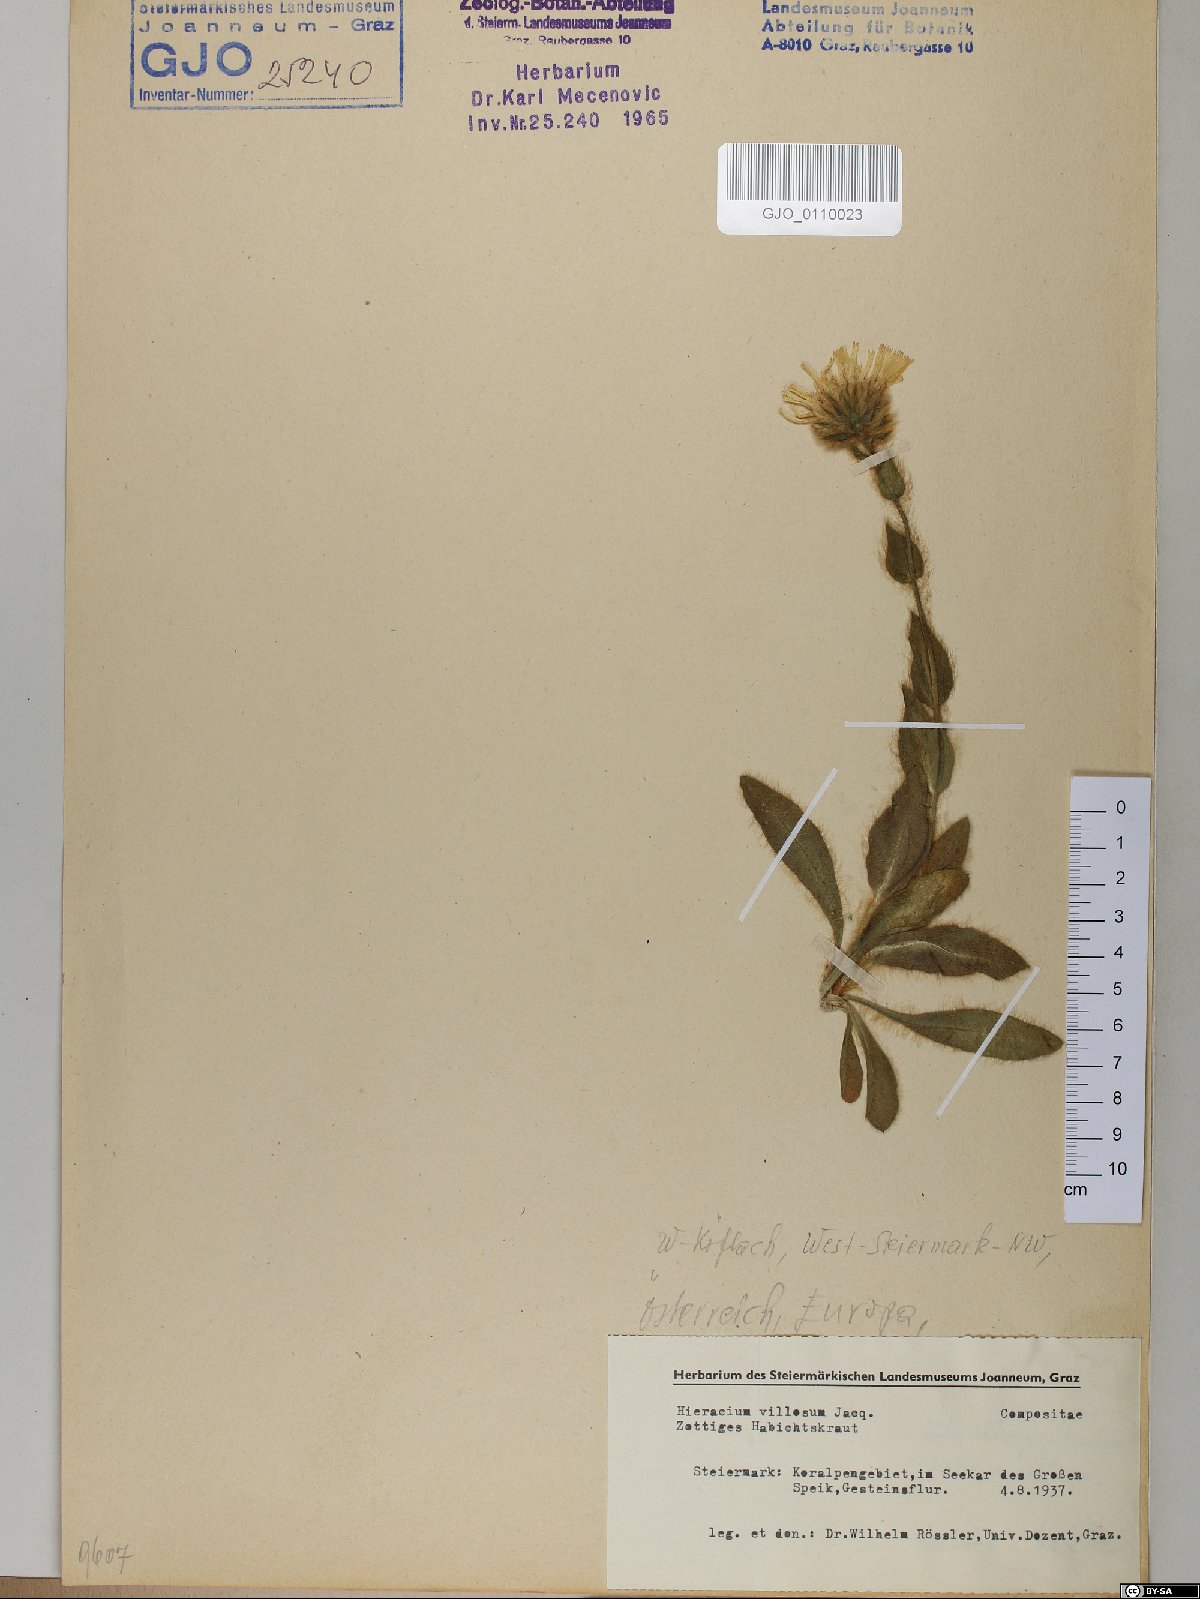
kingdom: Plantae
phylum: Tracheophyta
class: Magnoliopsida
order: Asterales
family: Asteraceae
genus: Hieracium
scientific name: Hieracium villosum
